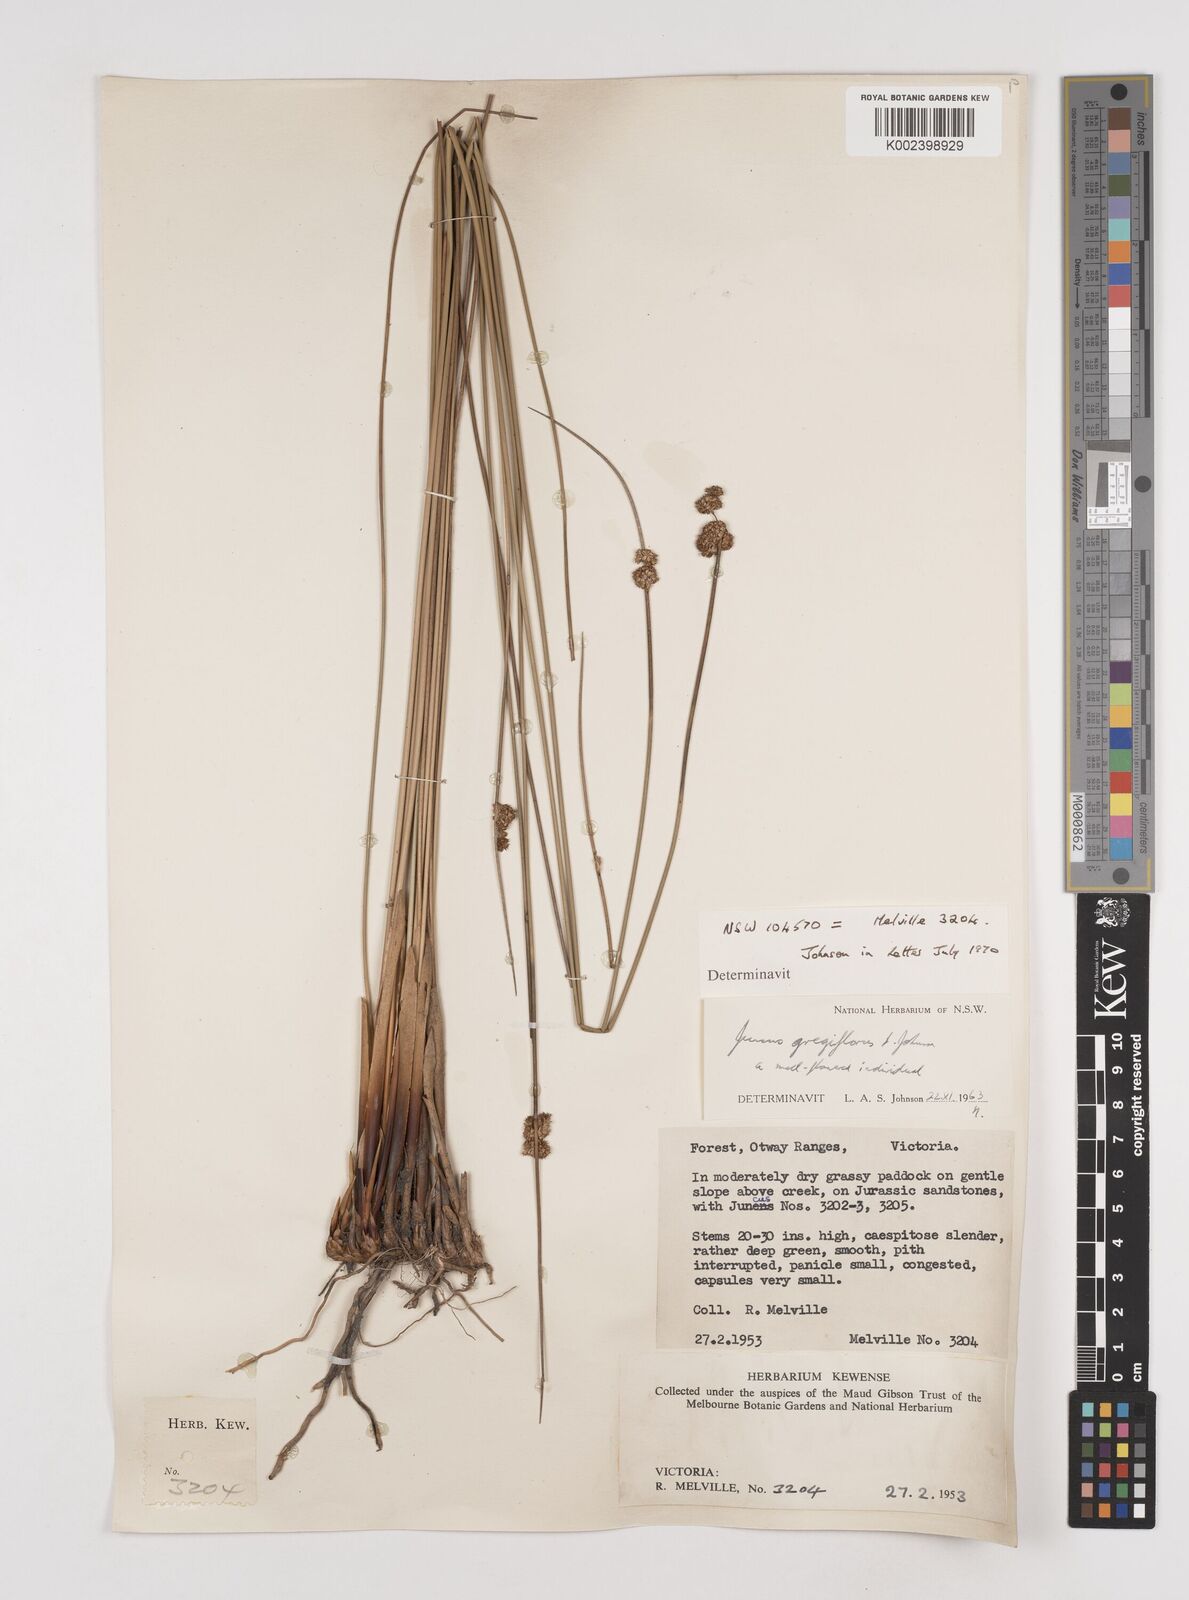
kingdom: Plantae
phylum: Tracheophyta
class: Liliopsida
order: Poales
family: Juncaceae
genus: Juncus
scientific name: Juncus gregiflorus
